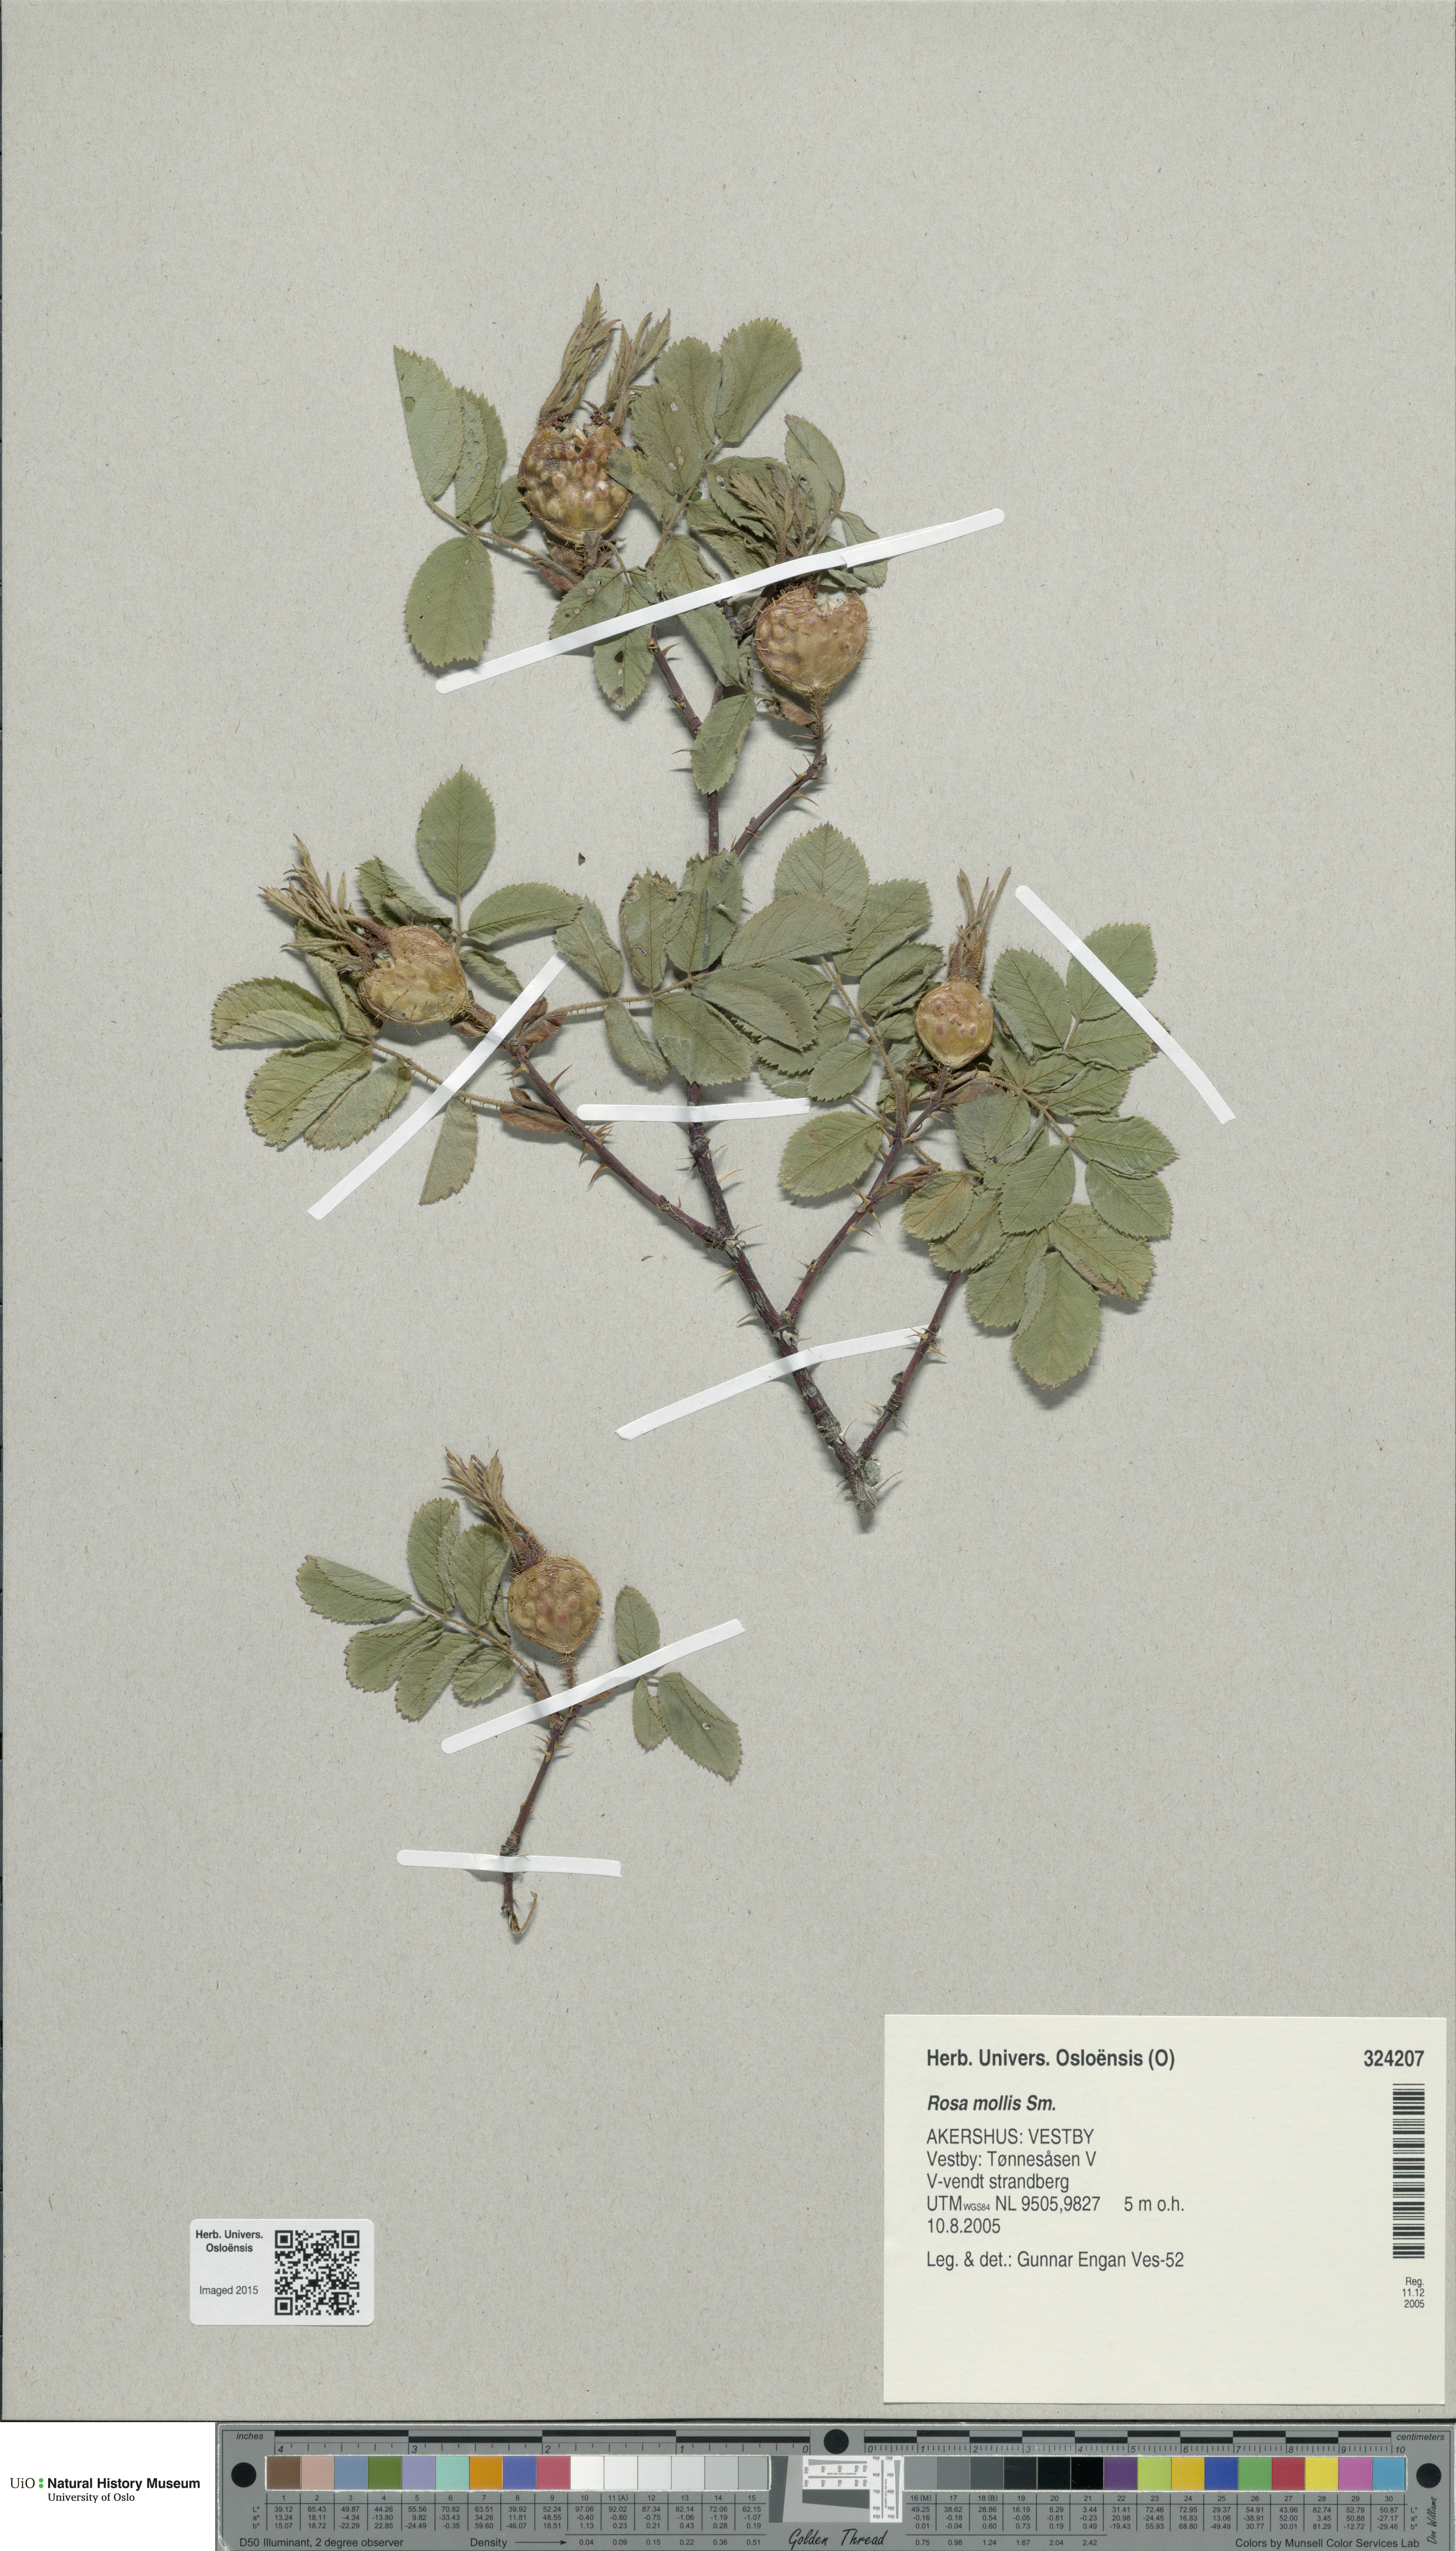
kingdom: Plantae
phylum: Tracheophyta
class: Magnoliopsida
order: Rosales
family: Rosaceae
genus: Rosa
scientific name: Rosa mollis
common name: Rose
